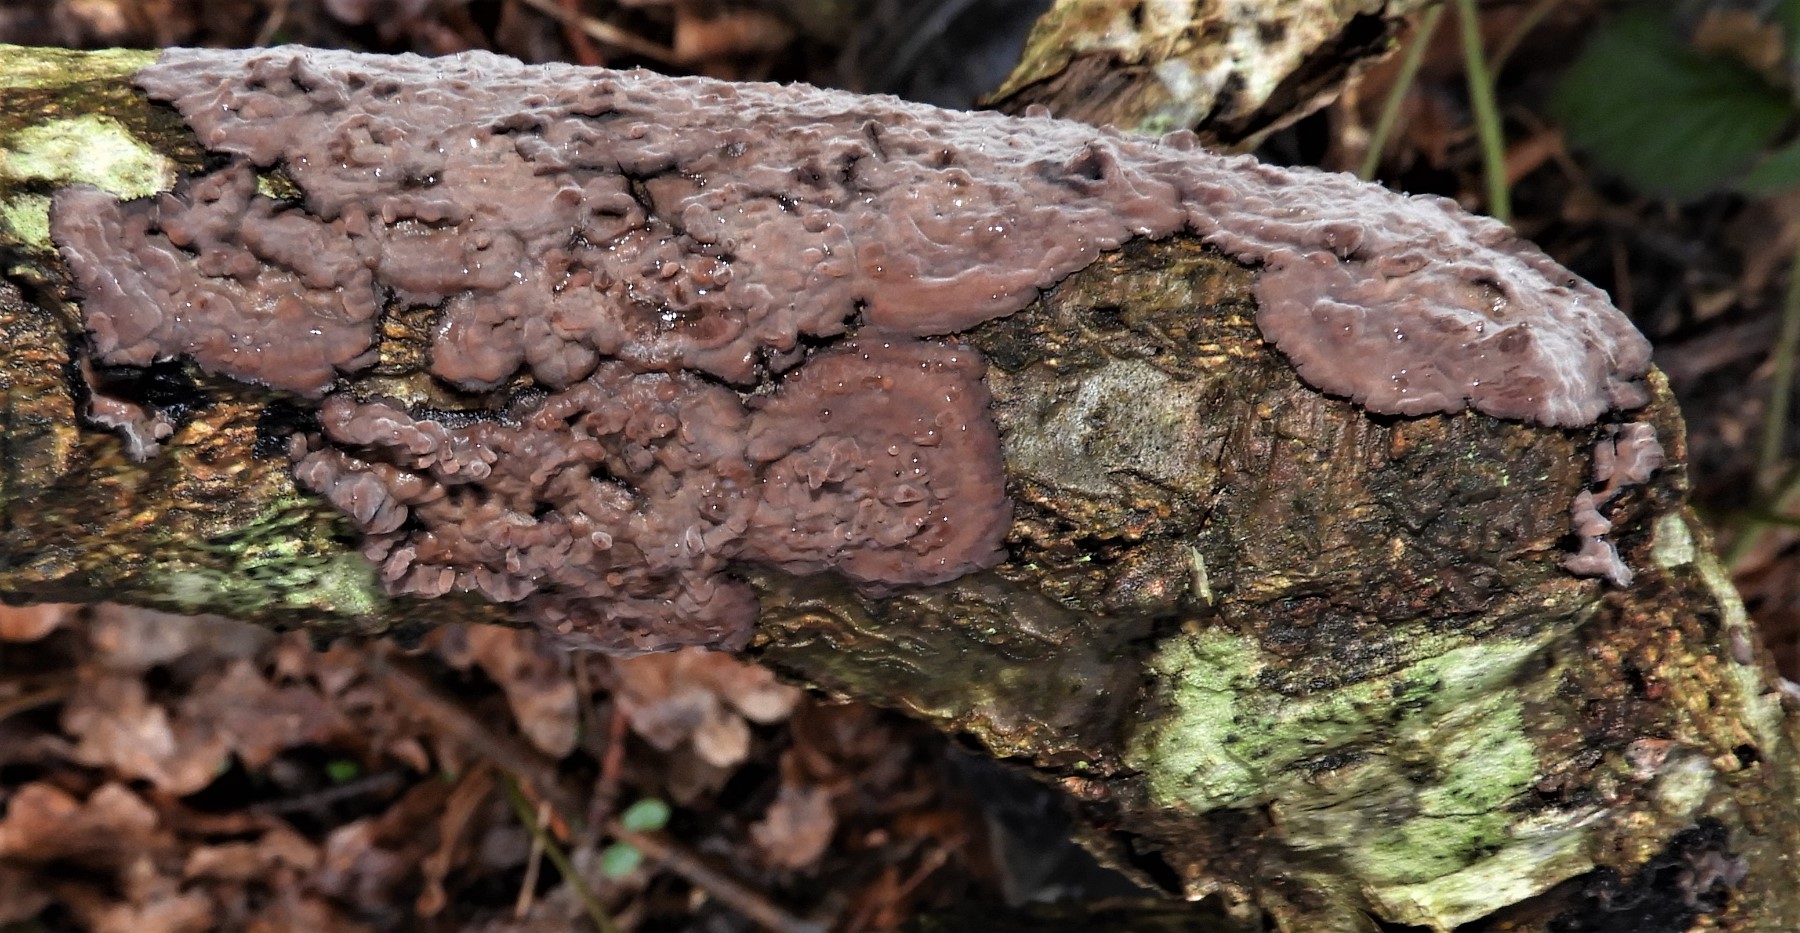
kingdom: Fungi
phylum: Basidiomycota
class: Agaricomycetes
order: Russulales
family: Peniophoraceae
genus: Peniophora
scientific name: Peniophora quercina
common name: ege-voksskind
